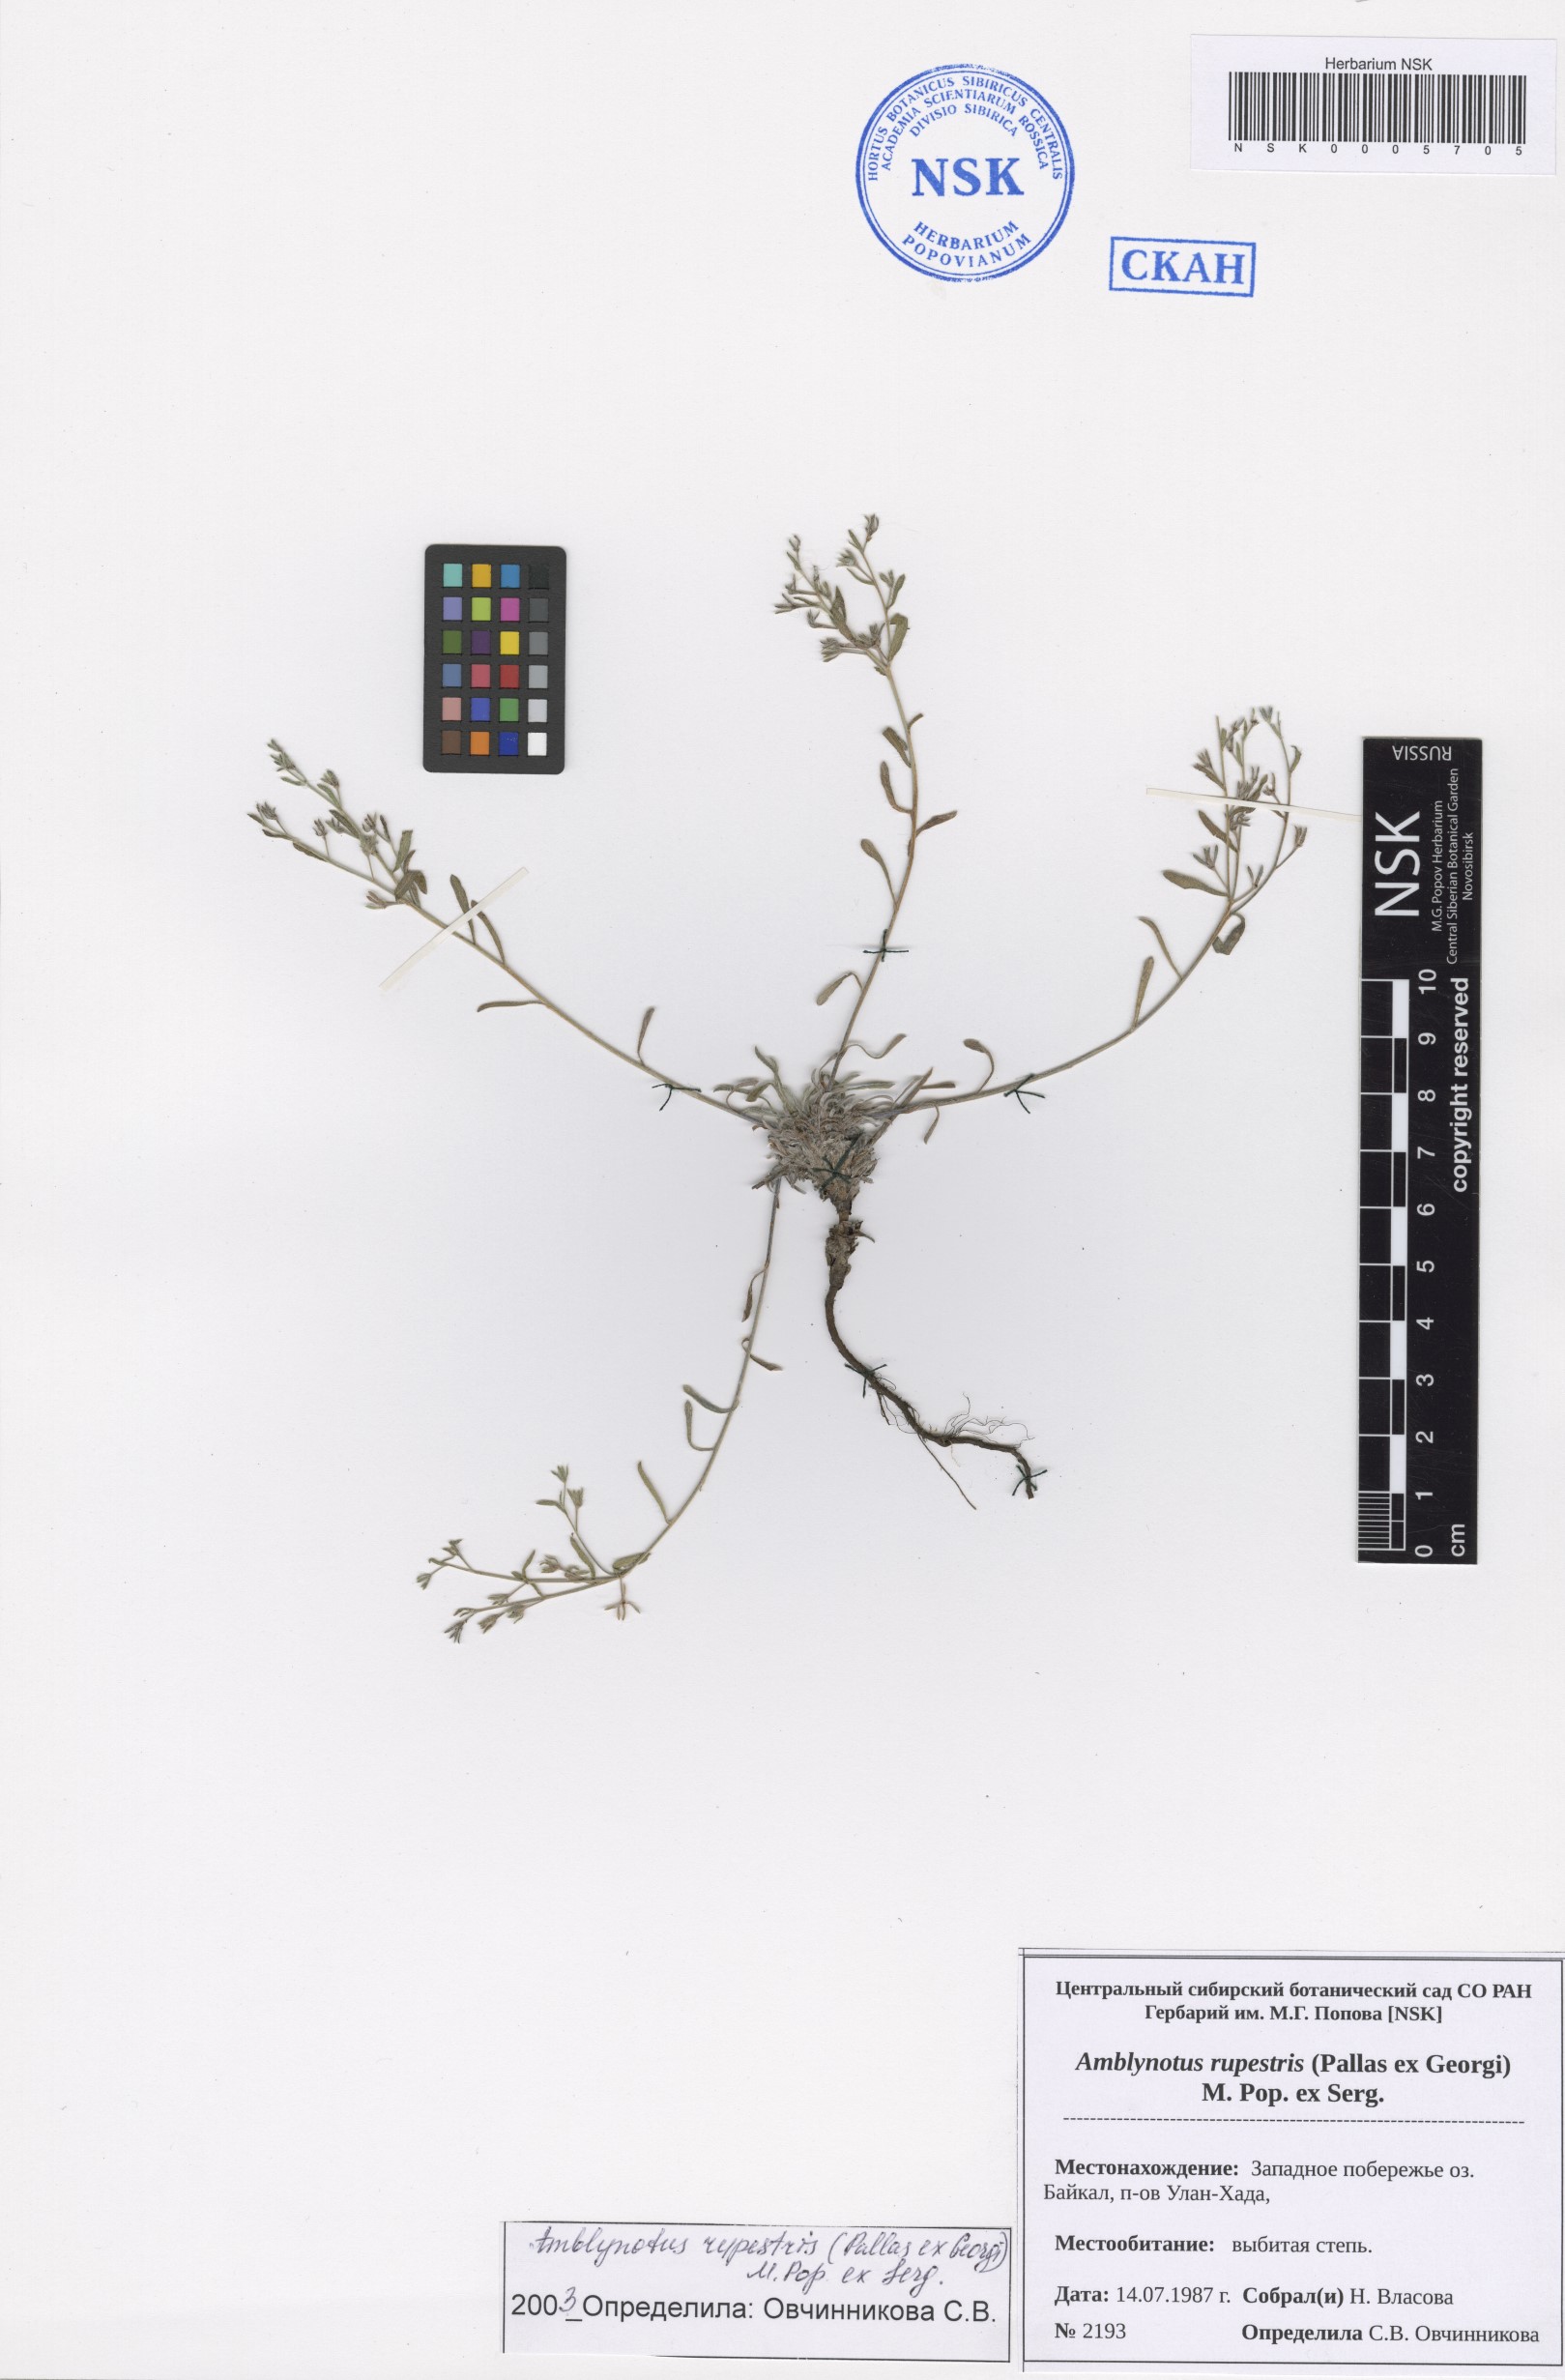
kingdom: Plantae
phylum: Tracheophyta
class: Magnoliopsida
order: Boraginales
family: Boraginaceae
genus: Eritrichium
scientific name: Eritrichium rupestre
